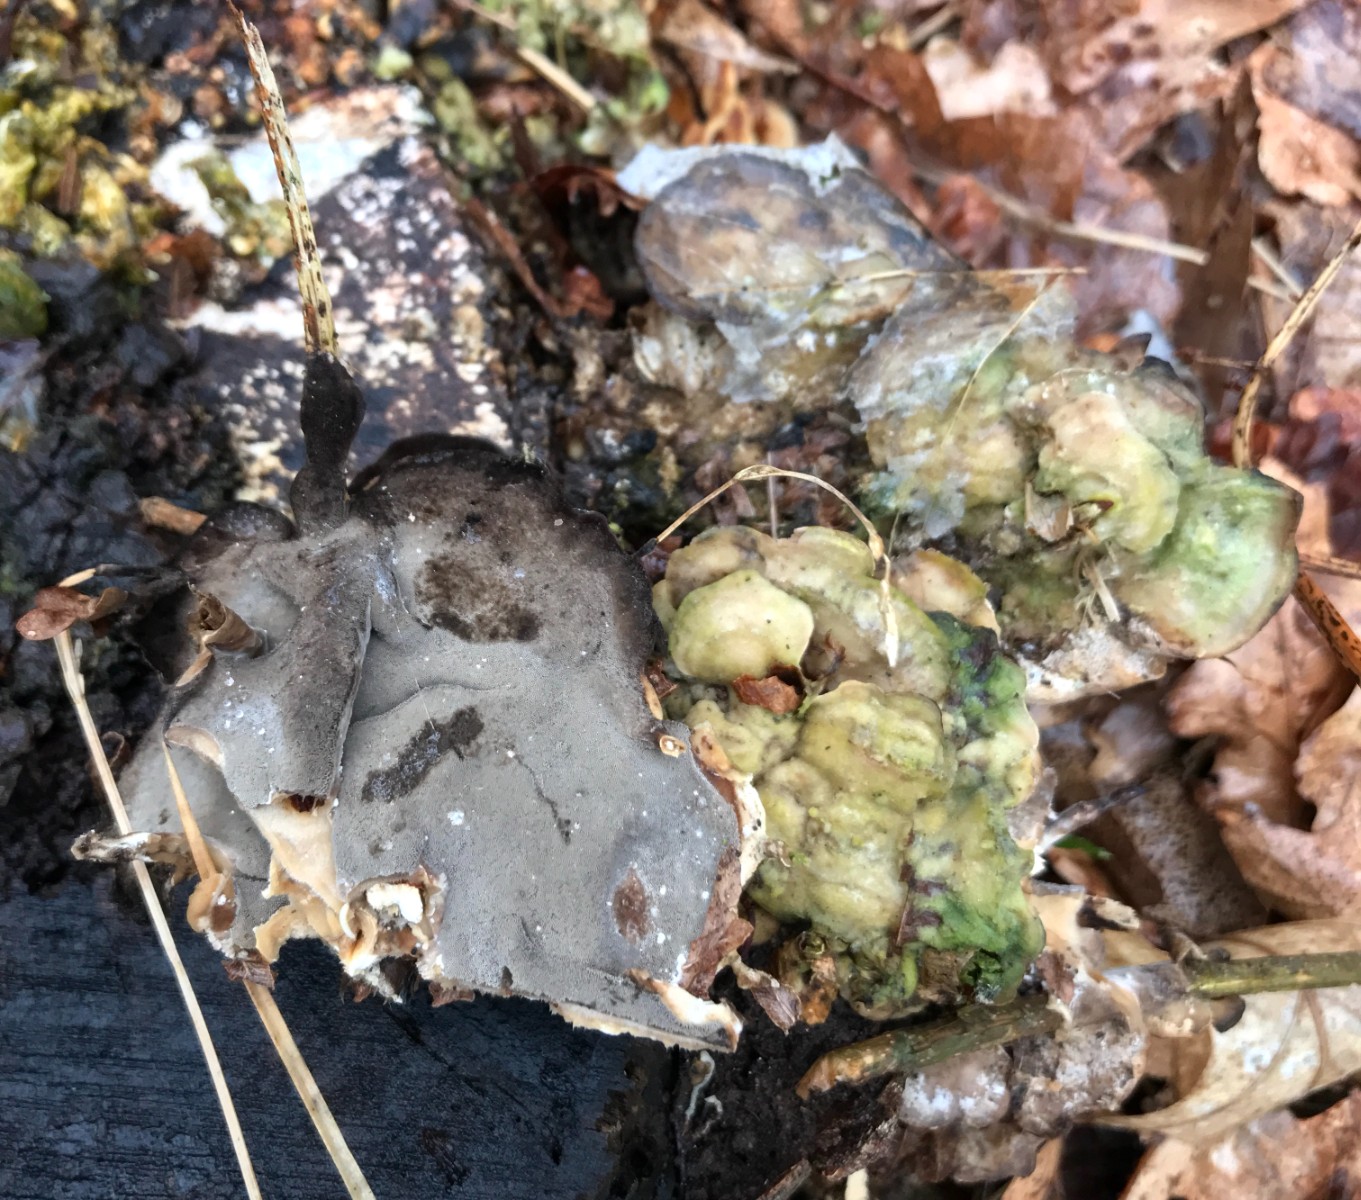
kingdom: Fungi
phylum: Basidiomycota
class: Agaricomycetes
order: Polyporales
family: Phanerochaetaceae
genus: Bjerkandera
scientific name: Bjerkandera adusta
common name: sveden sodporesvamp
